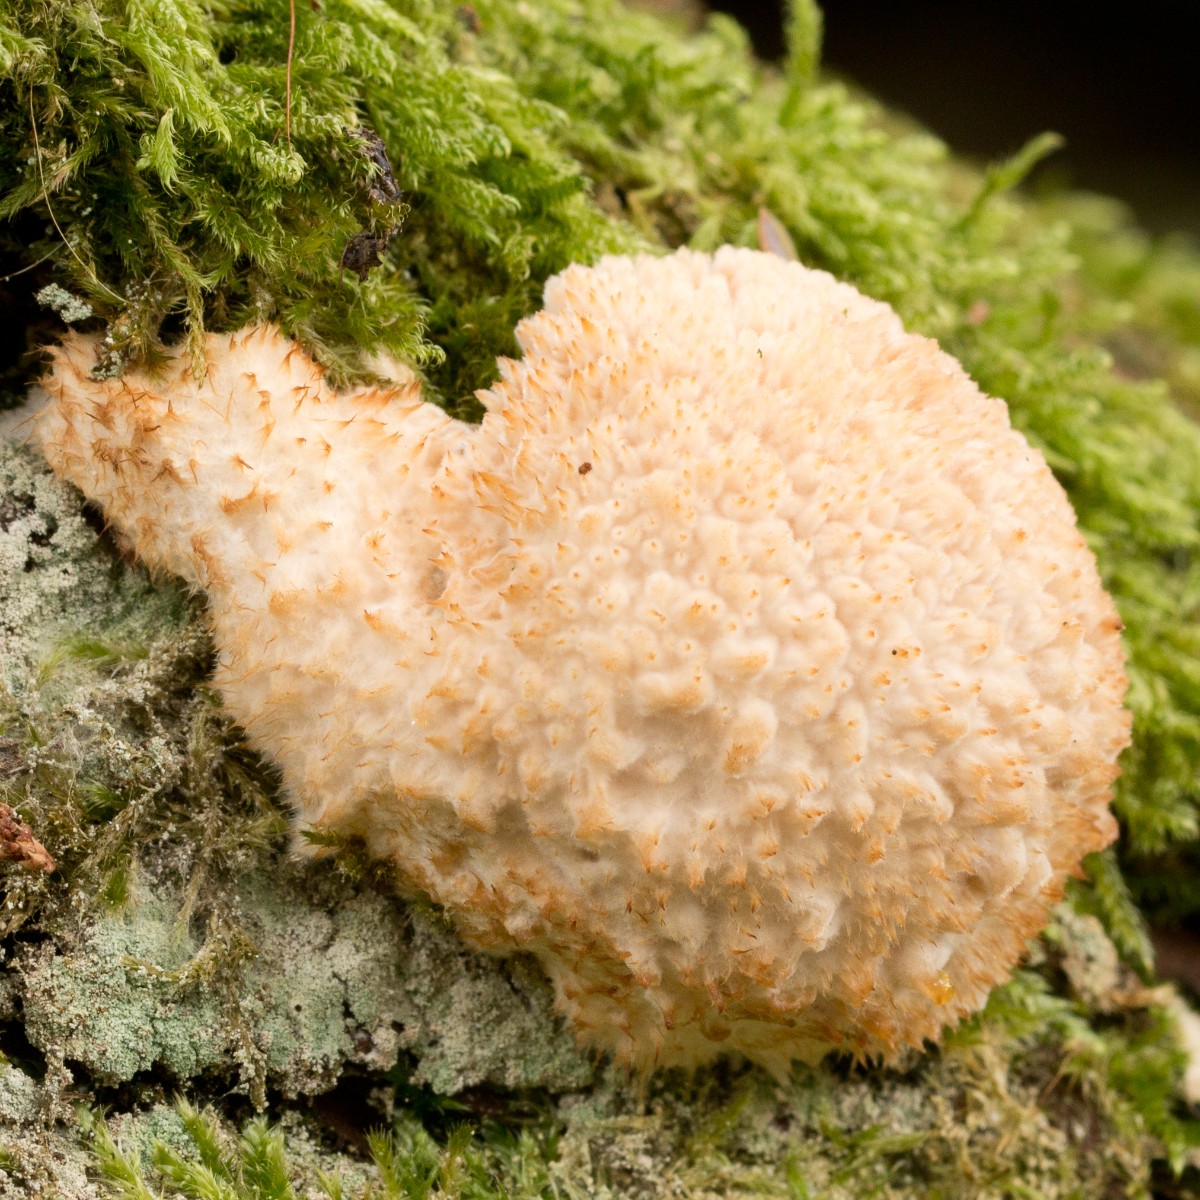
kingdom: Fungi
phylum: Basidiomycota
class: Agaricomycetes
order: Polyporales
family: Dacryobolaceae
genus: Postia
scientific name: Postia ptychogaster
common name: støvende kødporesvamp
